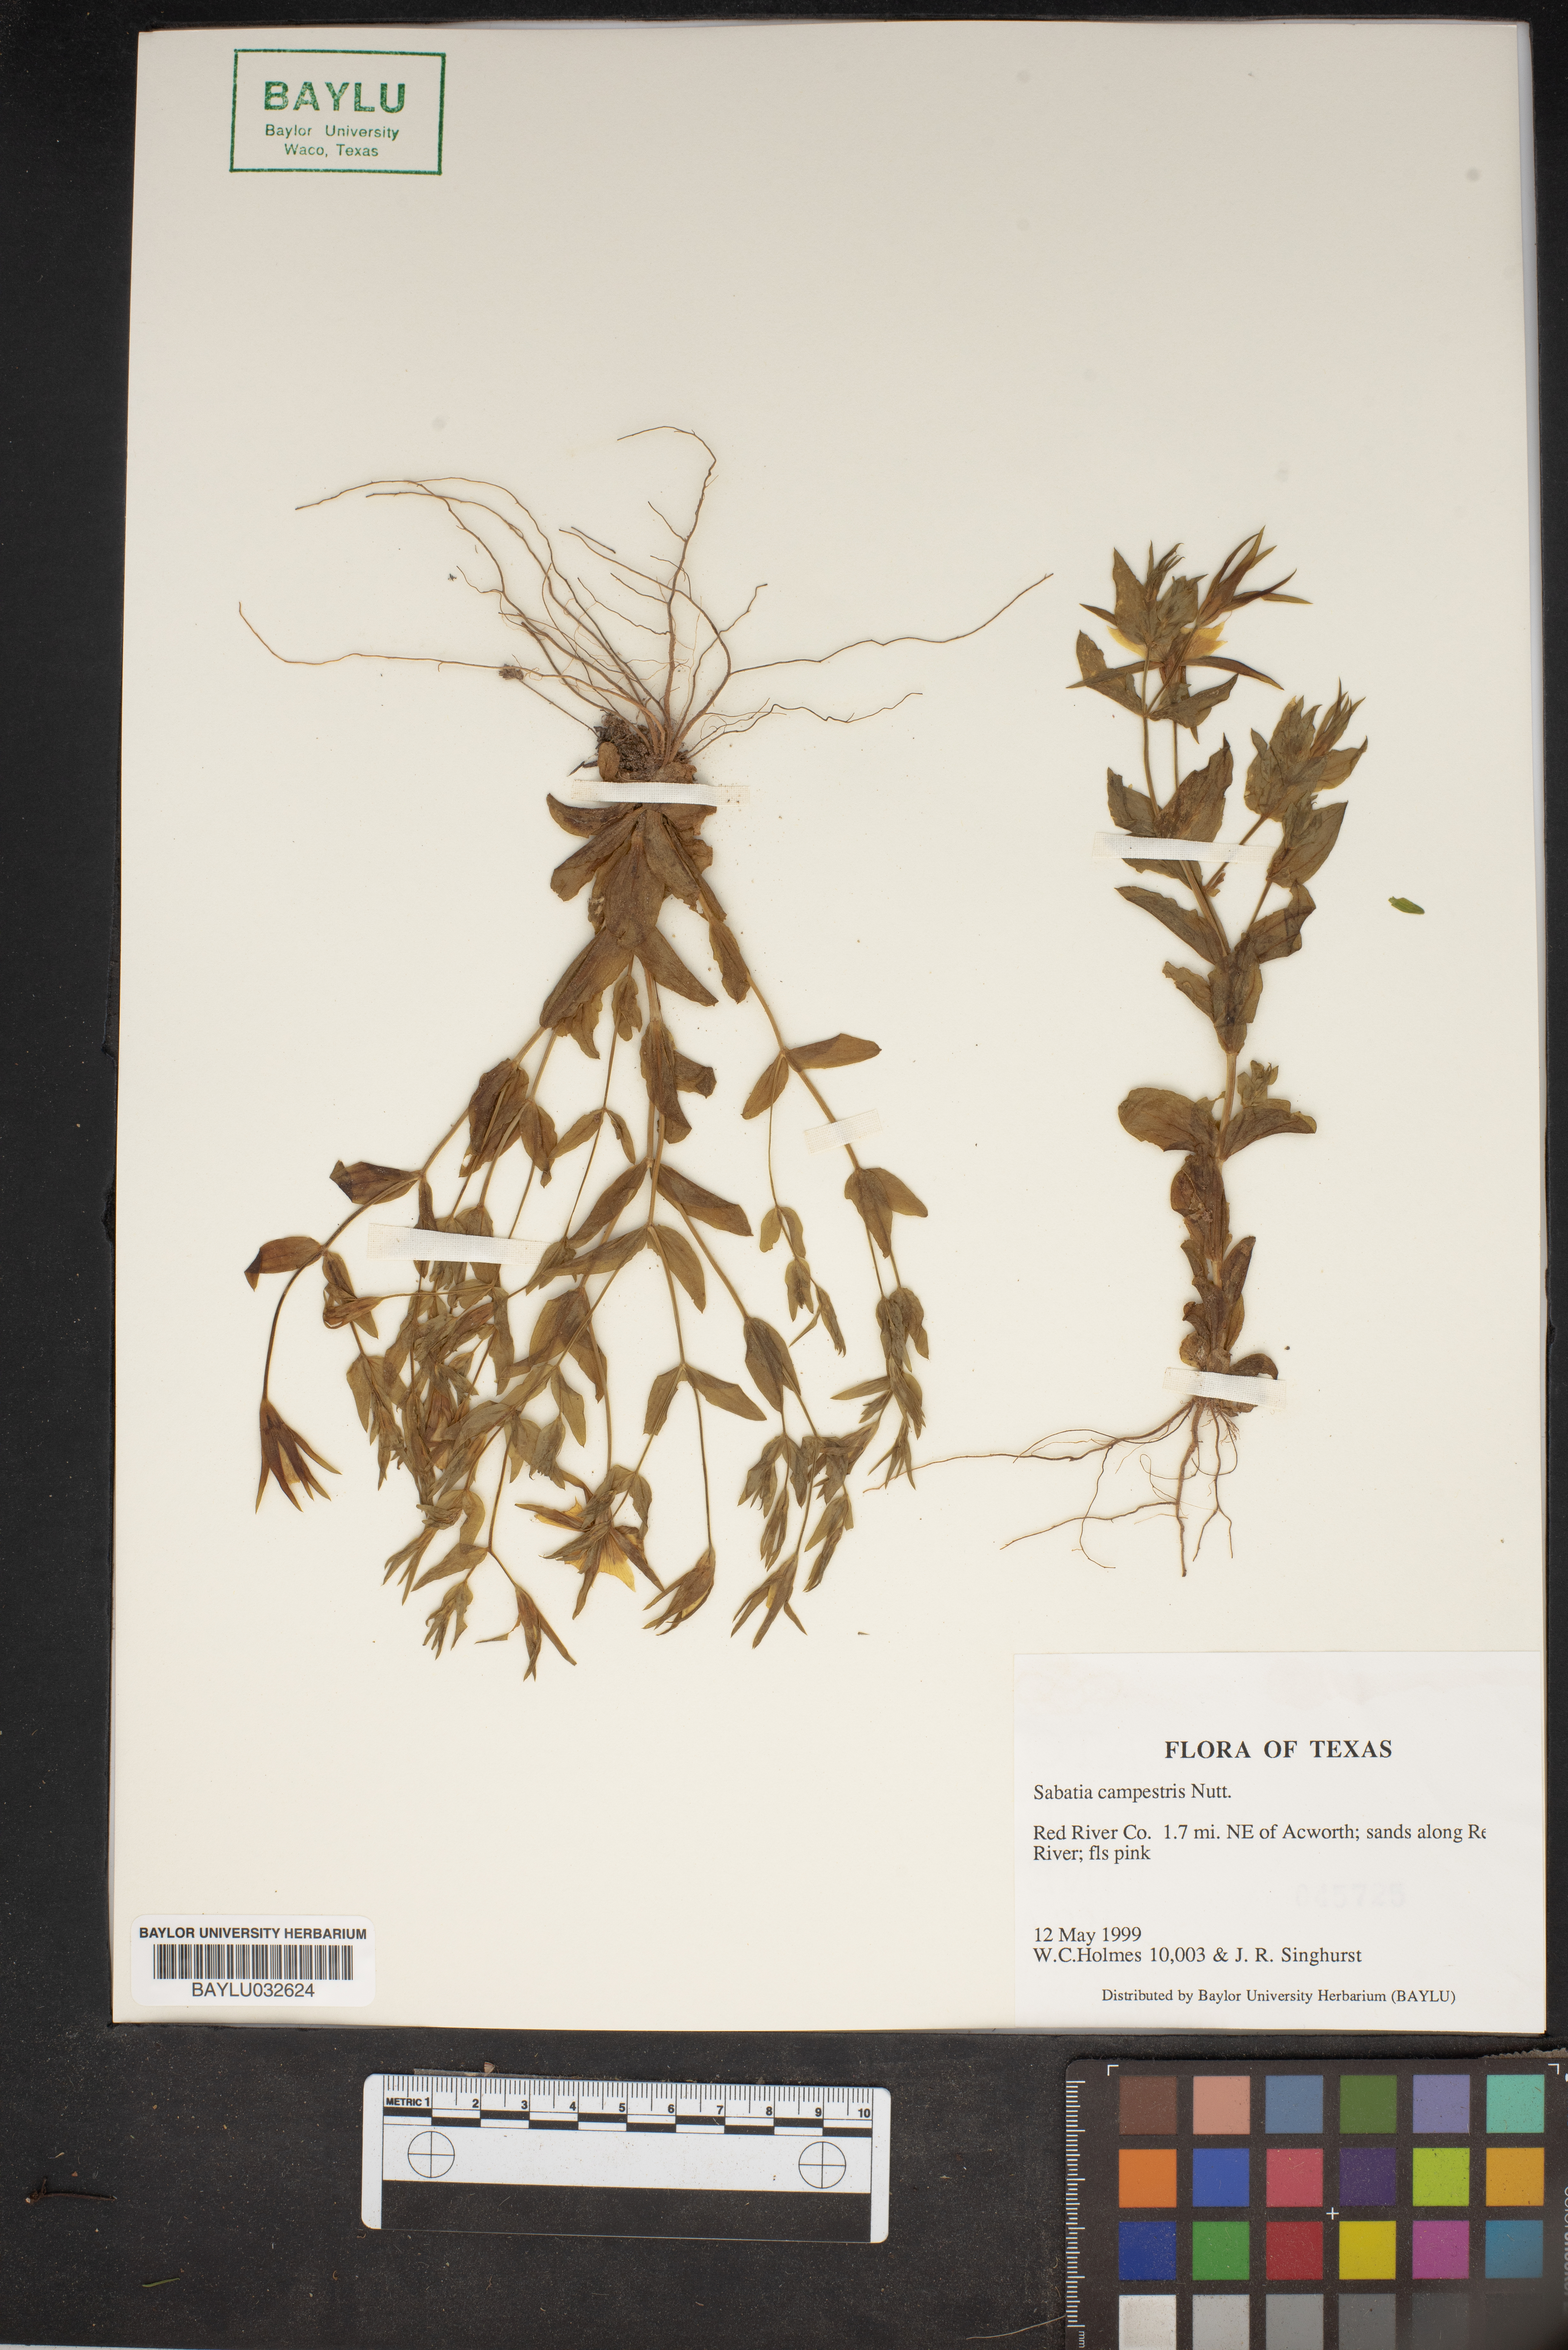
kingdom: Plantae
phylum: Tracheophyta
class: Magnoliopsida
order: Gentianales
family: Gentianaceae
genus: Sabatia
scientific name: Sabatia campestris
